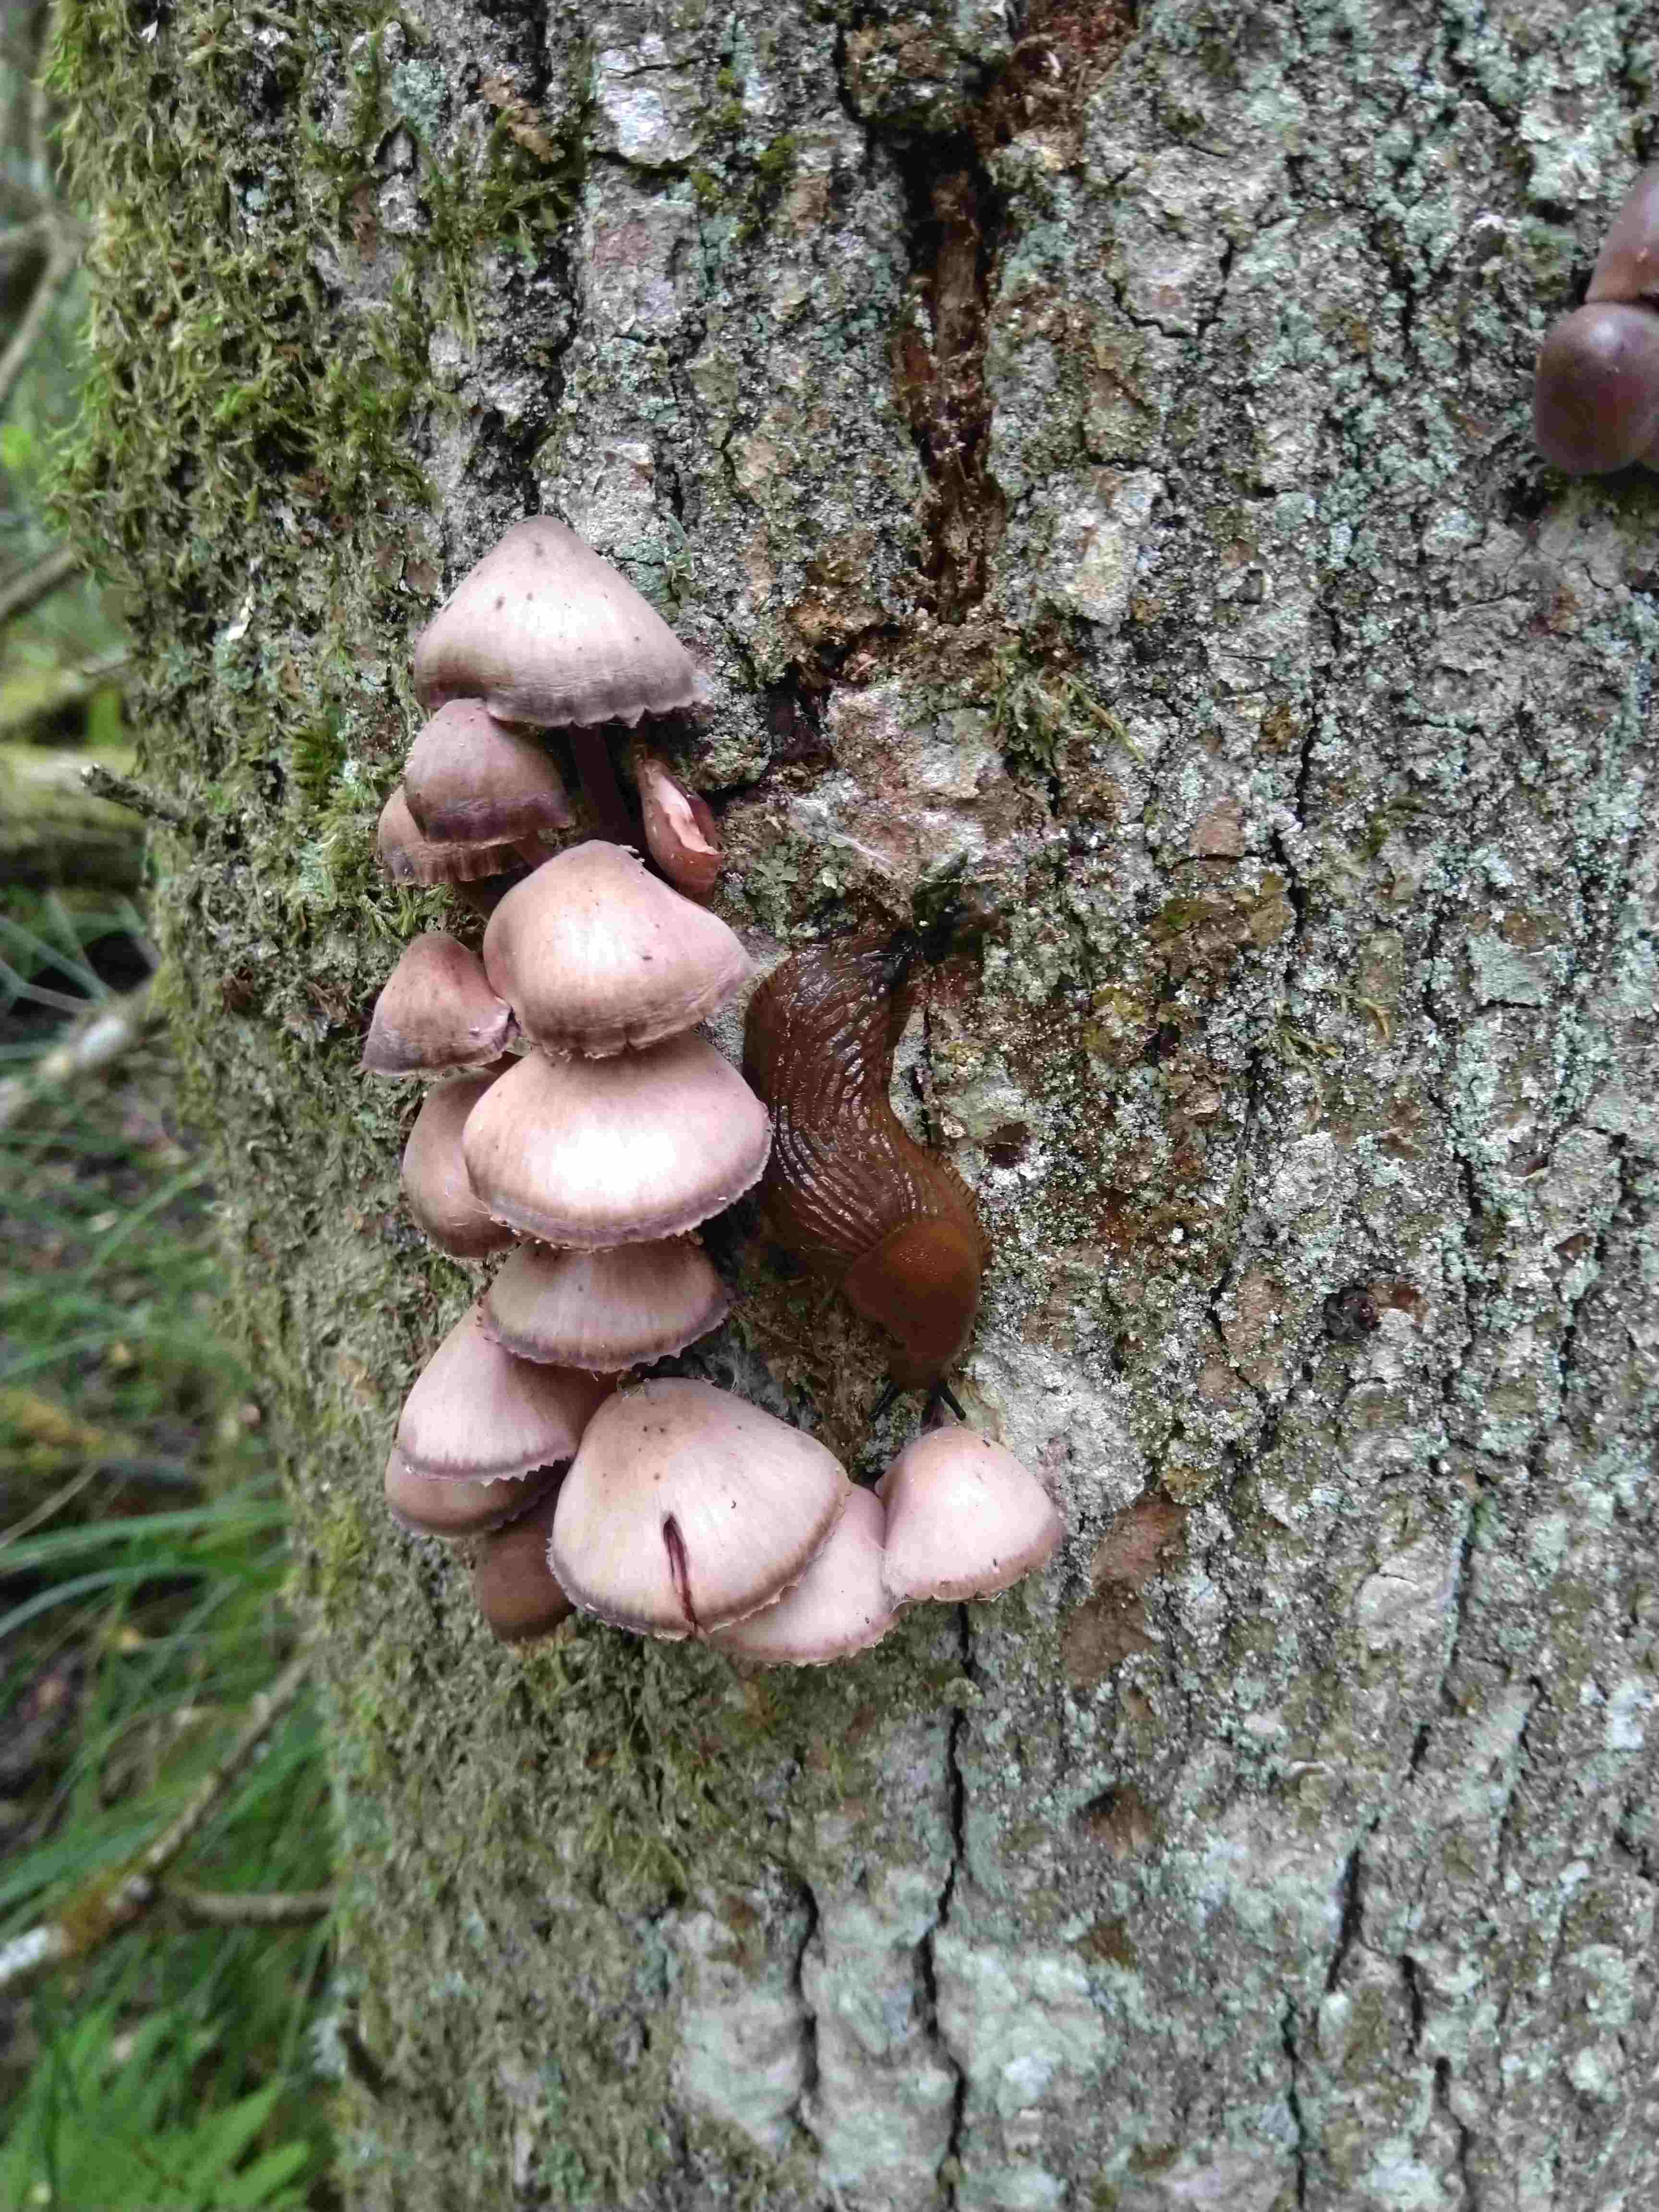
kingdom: Fungi
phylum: Basidiomycota
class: Agaricomycetes
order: Agaricales
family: Mycenaceae
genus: Mycena
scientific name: Mycena haematopus
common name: blødende huesvamp
